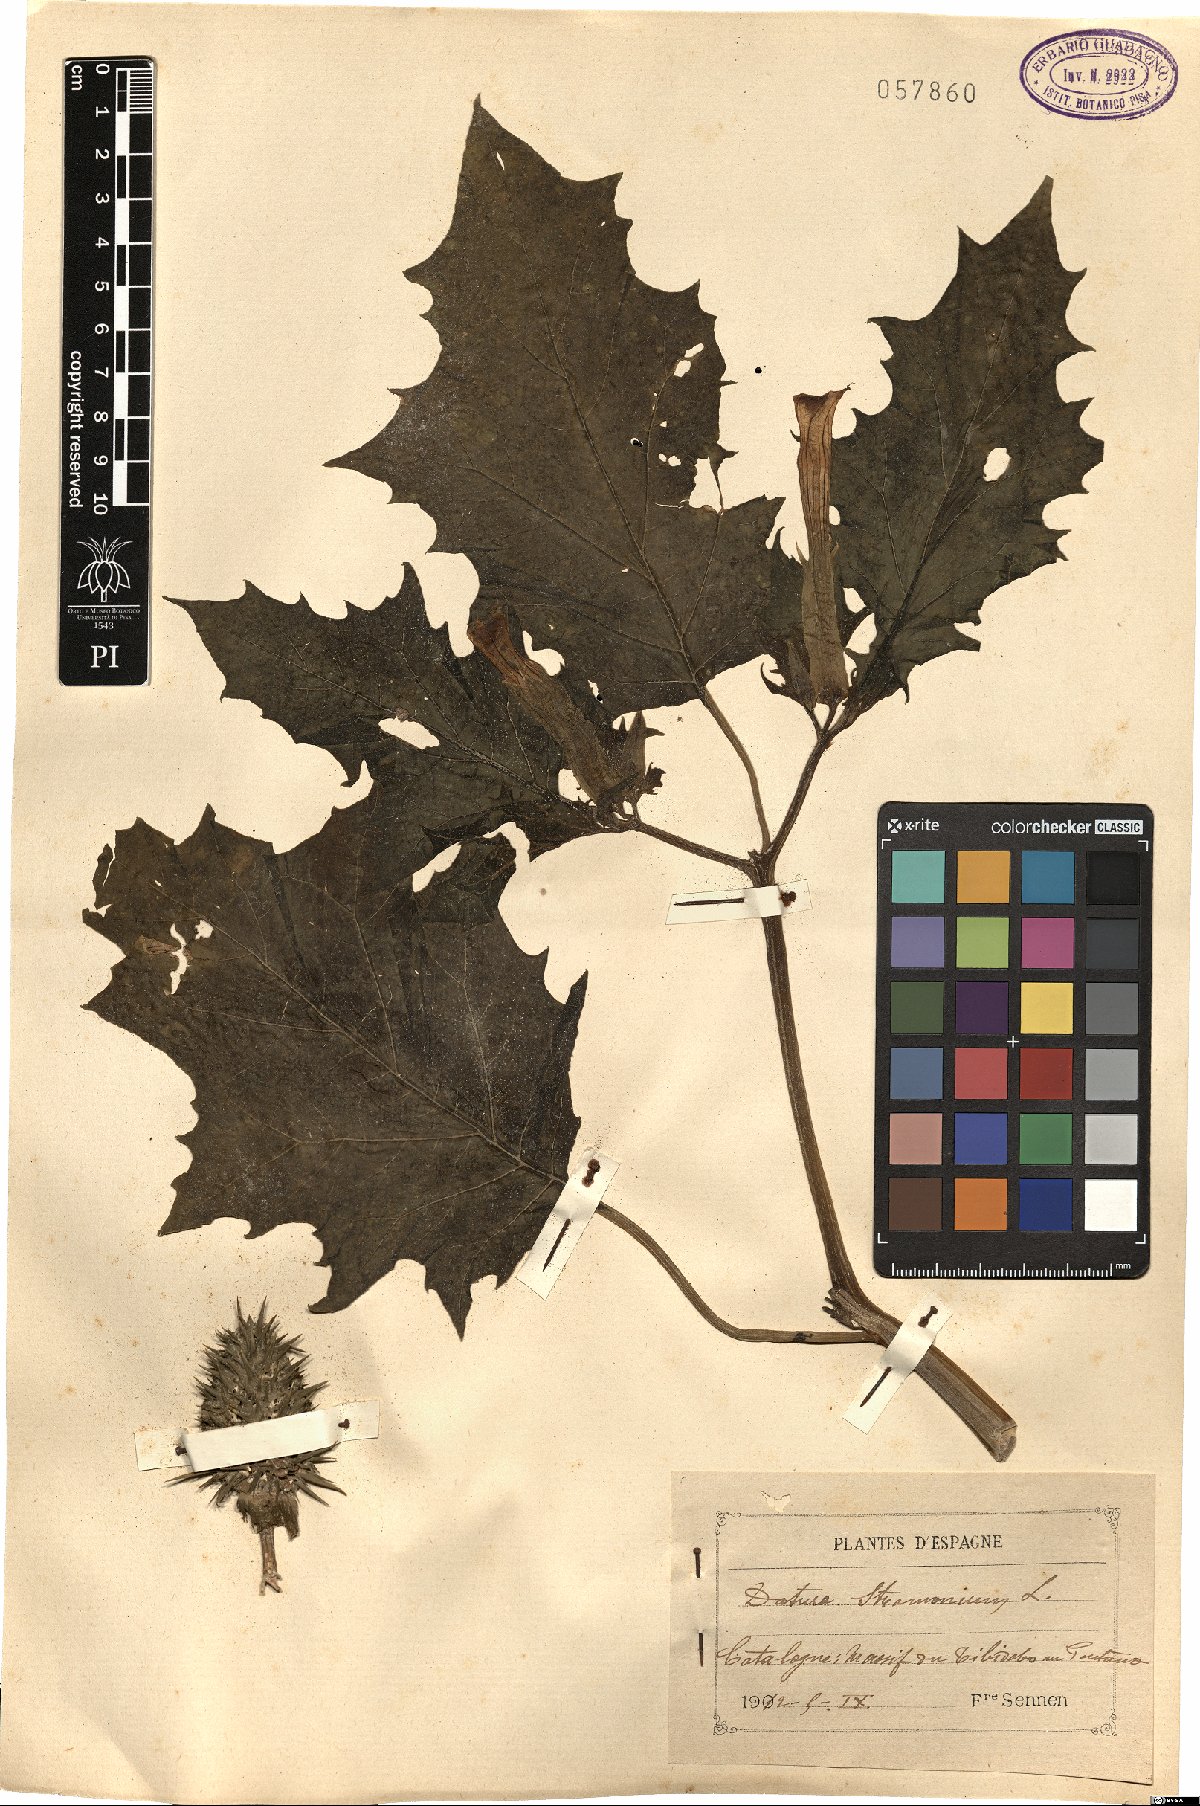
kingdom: Plantae
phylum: Tracheophyta
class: Magnoliopsida
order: Solanales
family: Solanaceae
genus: Datura
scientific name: Datura stramonium
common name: Thorn-apple
